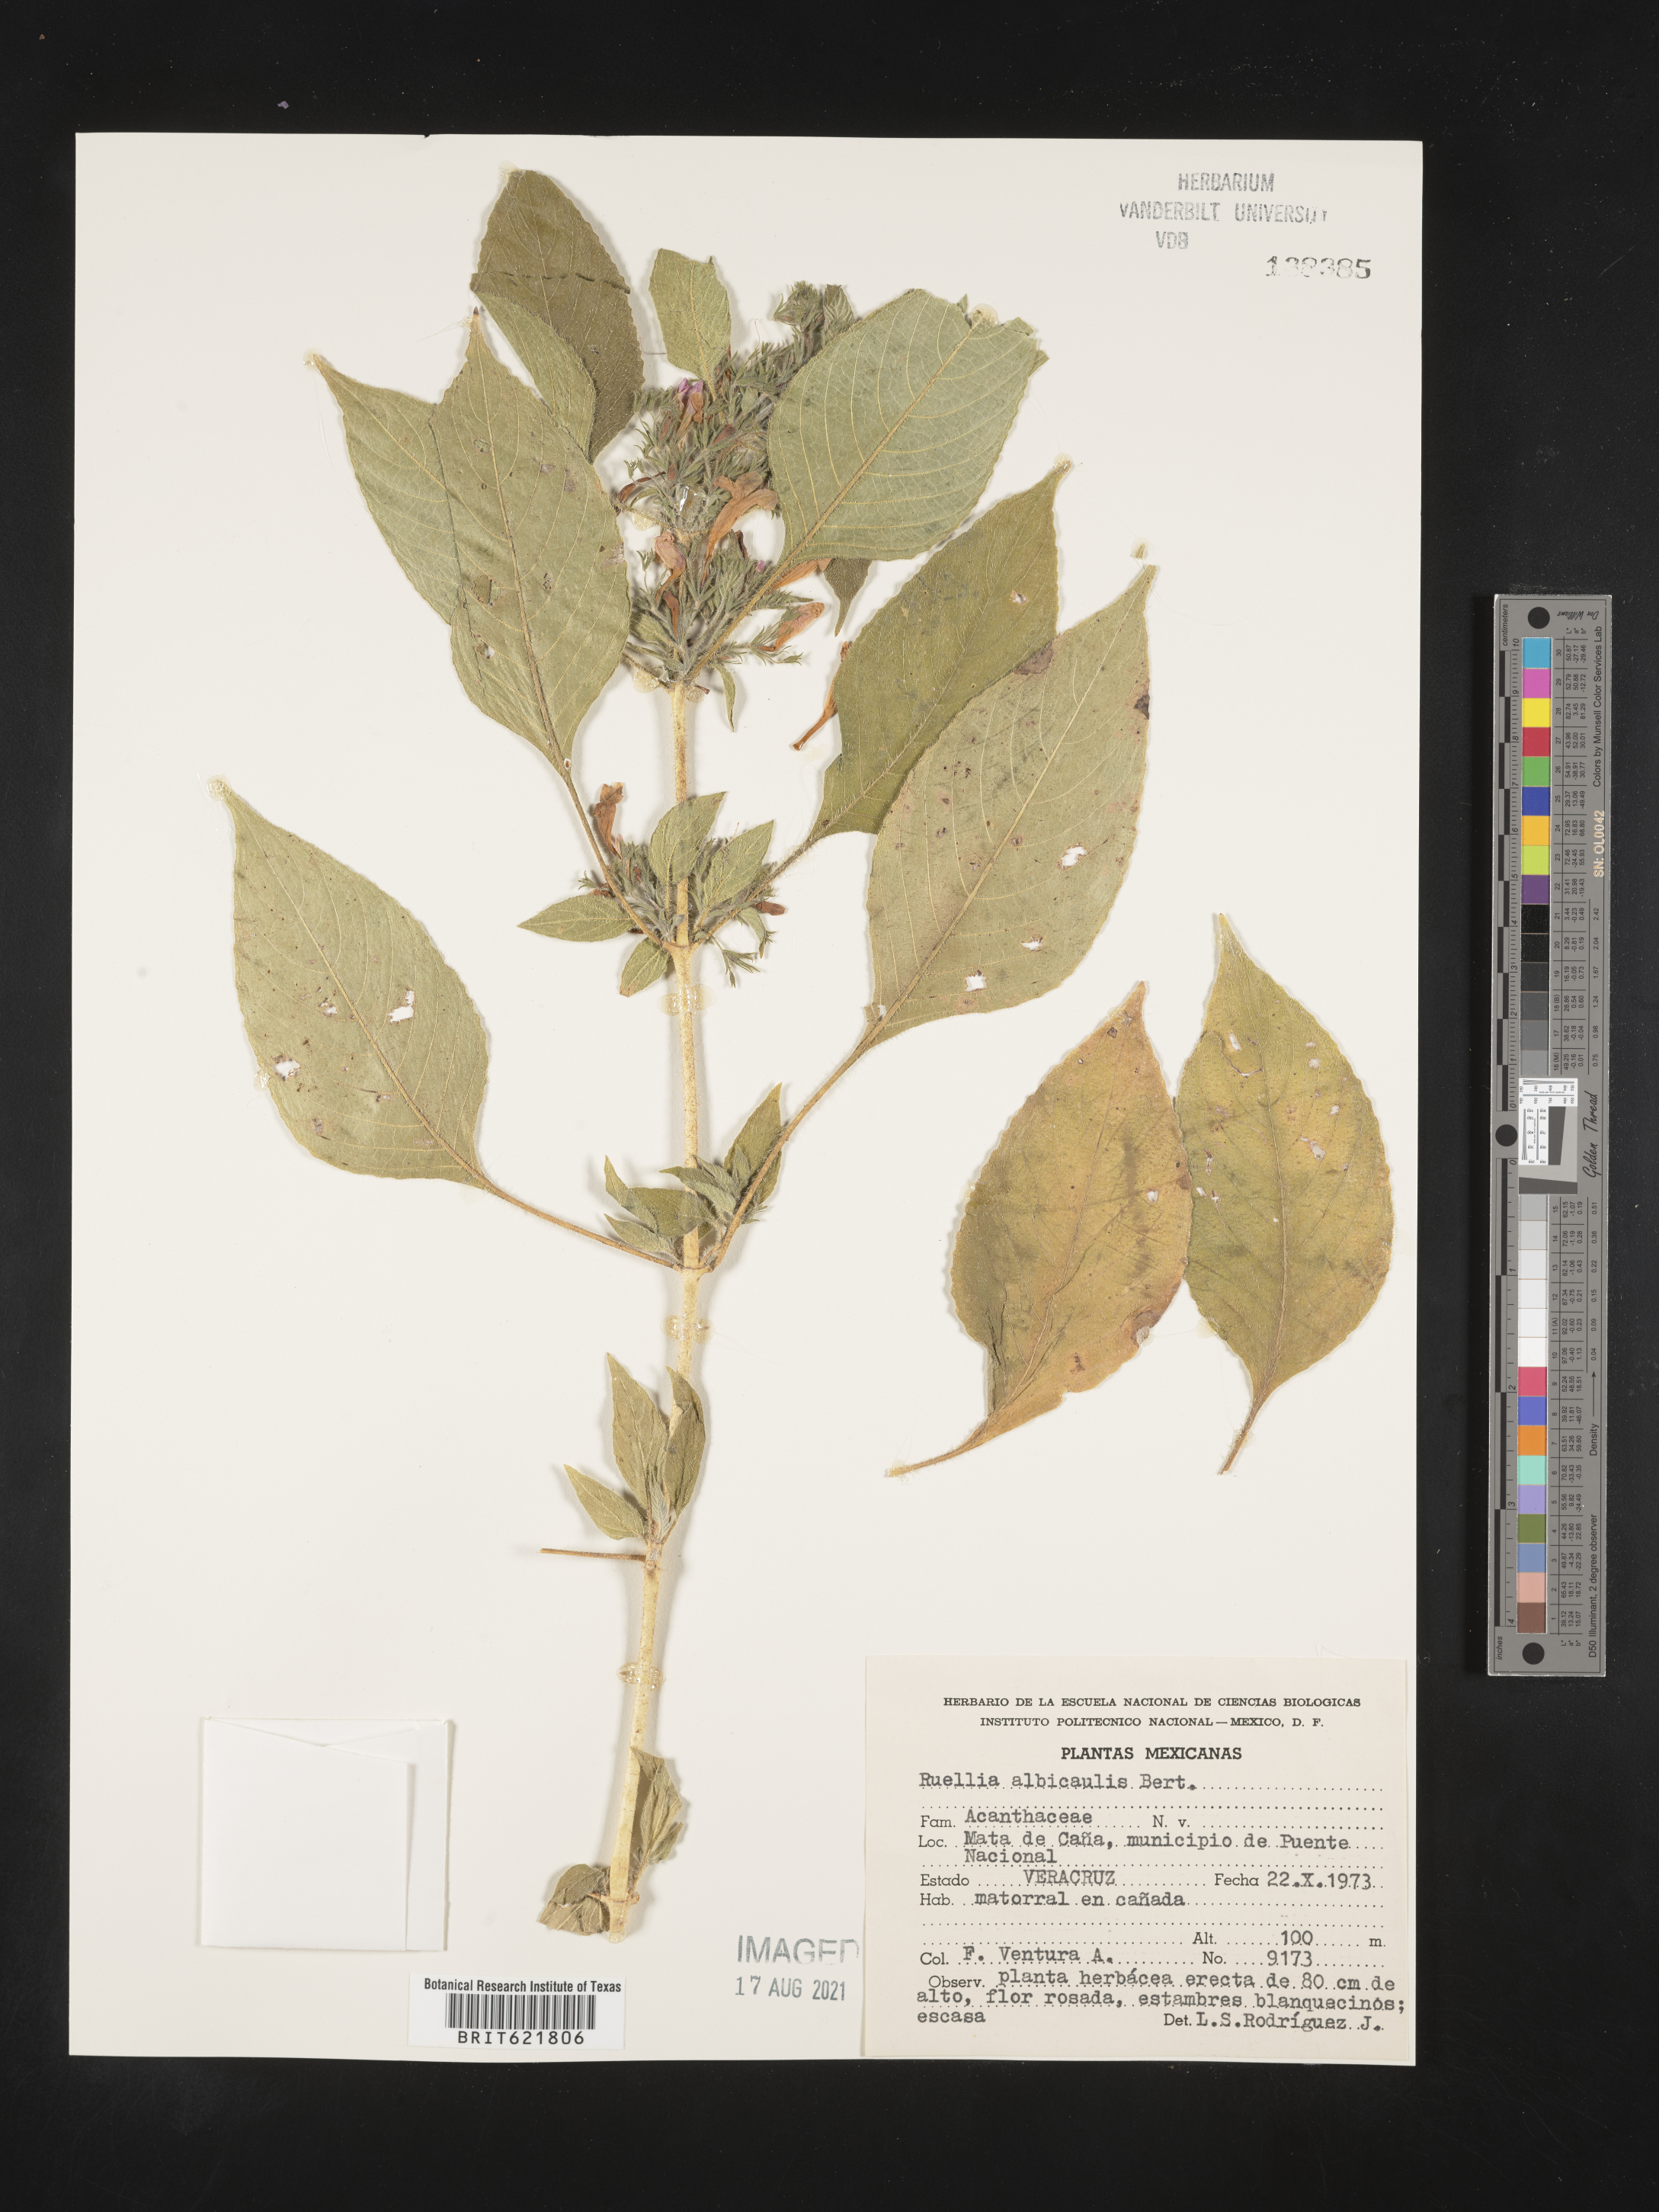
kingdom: Plantae
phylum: Tracheophyta
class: Magnoliopsida
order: Lamiales
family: Acanthaceae
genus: Ruellia
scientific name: Ruellia
